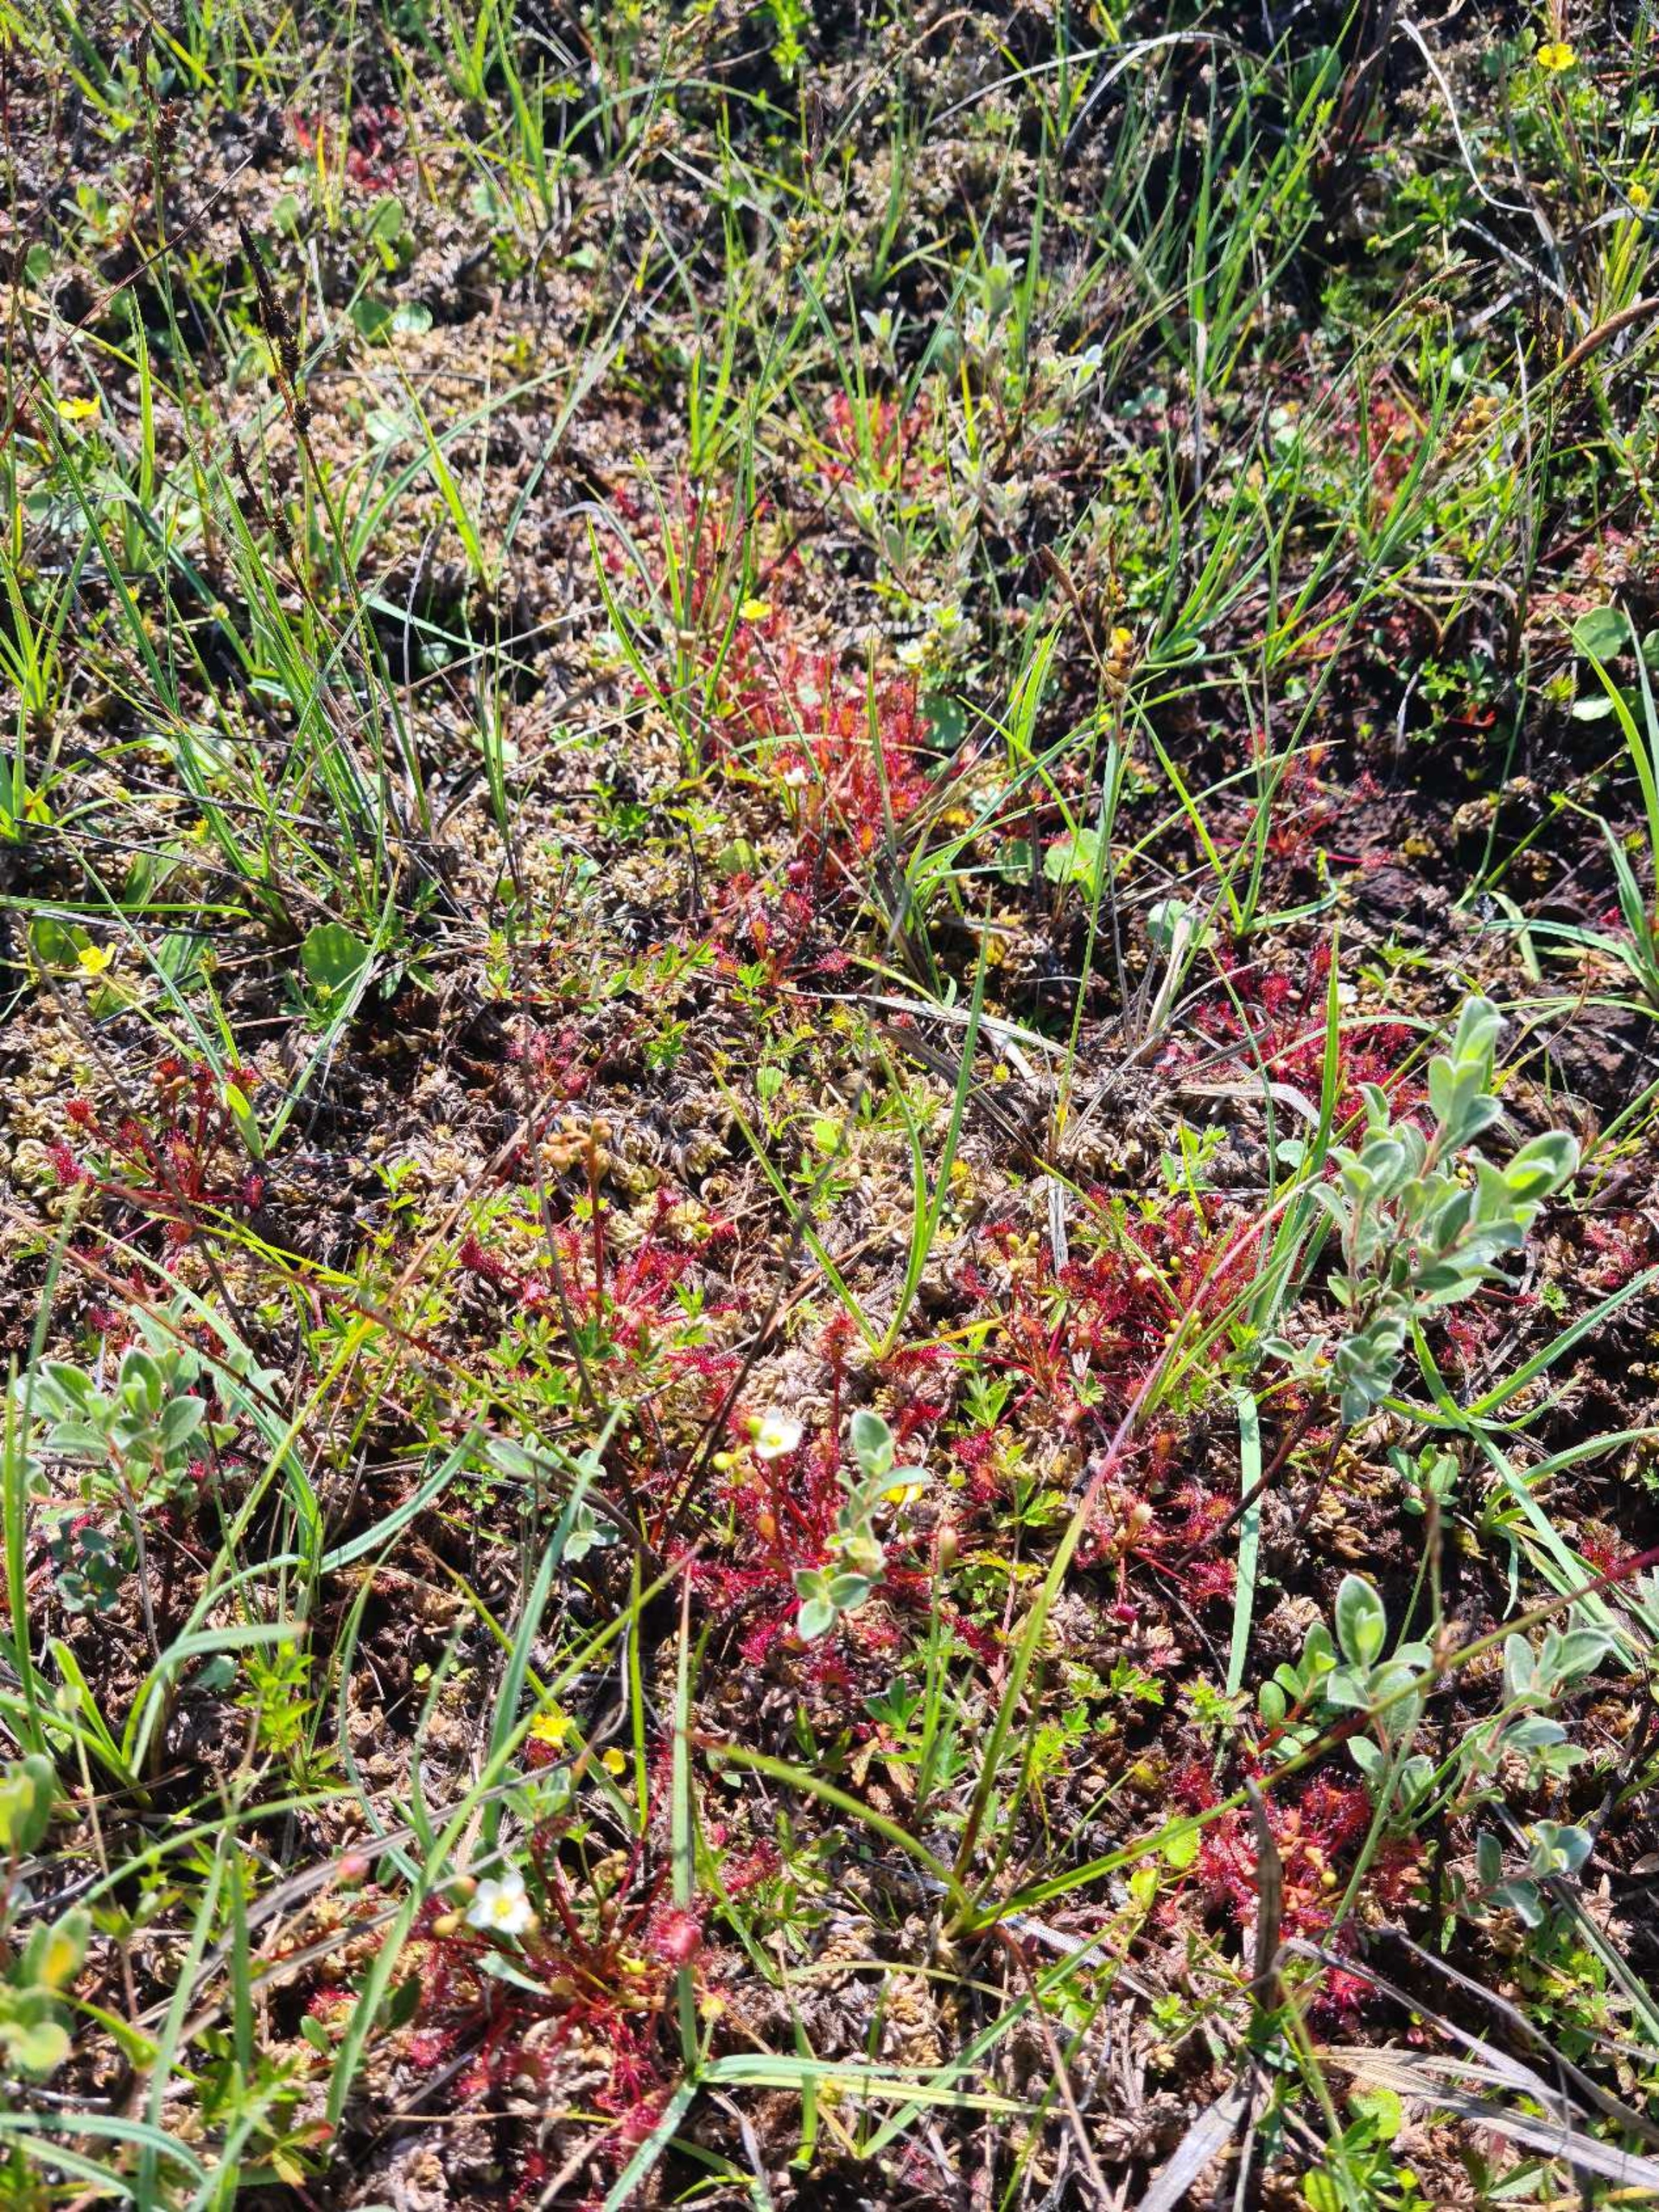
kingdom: Plantae
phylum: Tracheophyta
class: Magnoliopsida
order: Caryophyllales
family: Droseraceae
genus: Drosera
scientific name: Drosera intermedia
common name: Liden soldug
